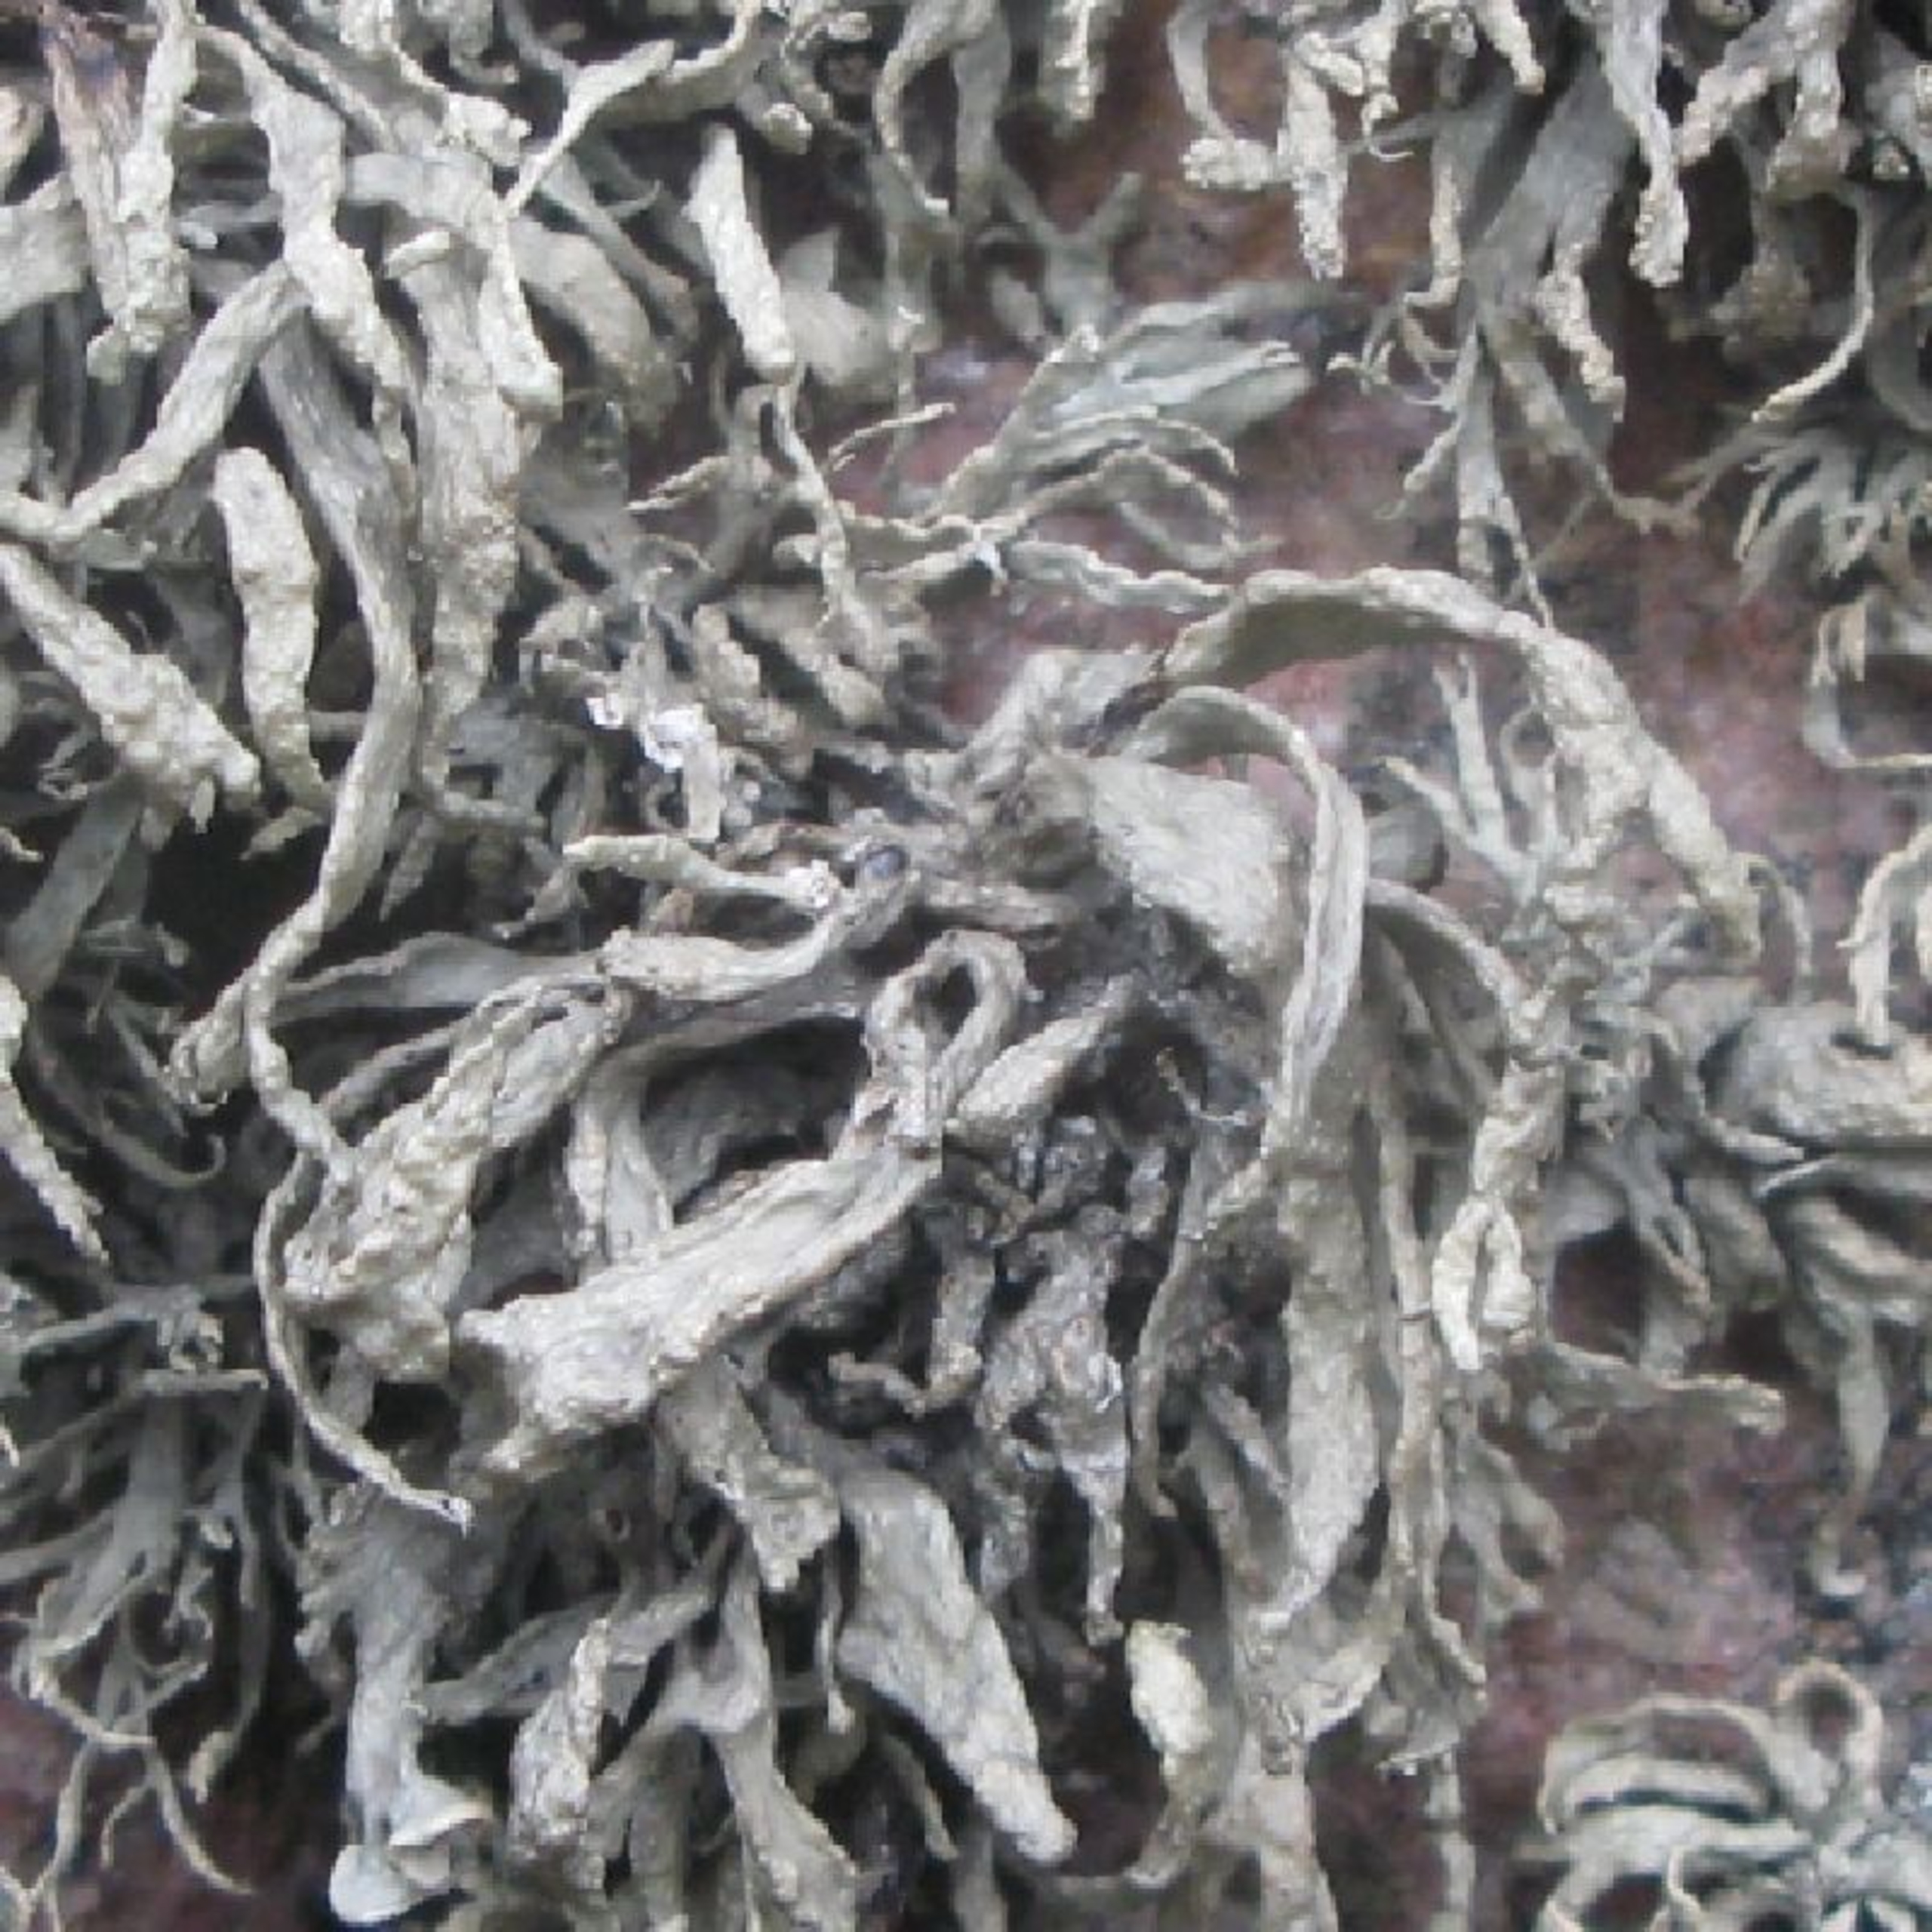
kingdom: Fungi
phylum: Ascomycota
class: Lecanoromycetes
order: Lecanorales
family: Ramalinaceae
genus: Ramalina
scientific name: Ramalina siliquosa
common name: Klippe-grenlav
